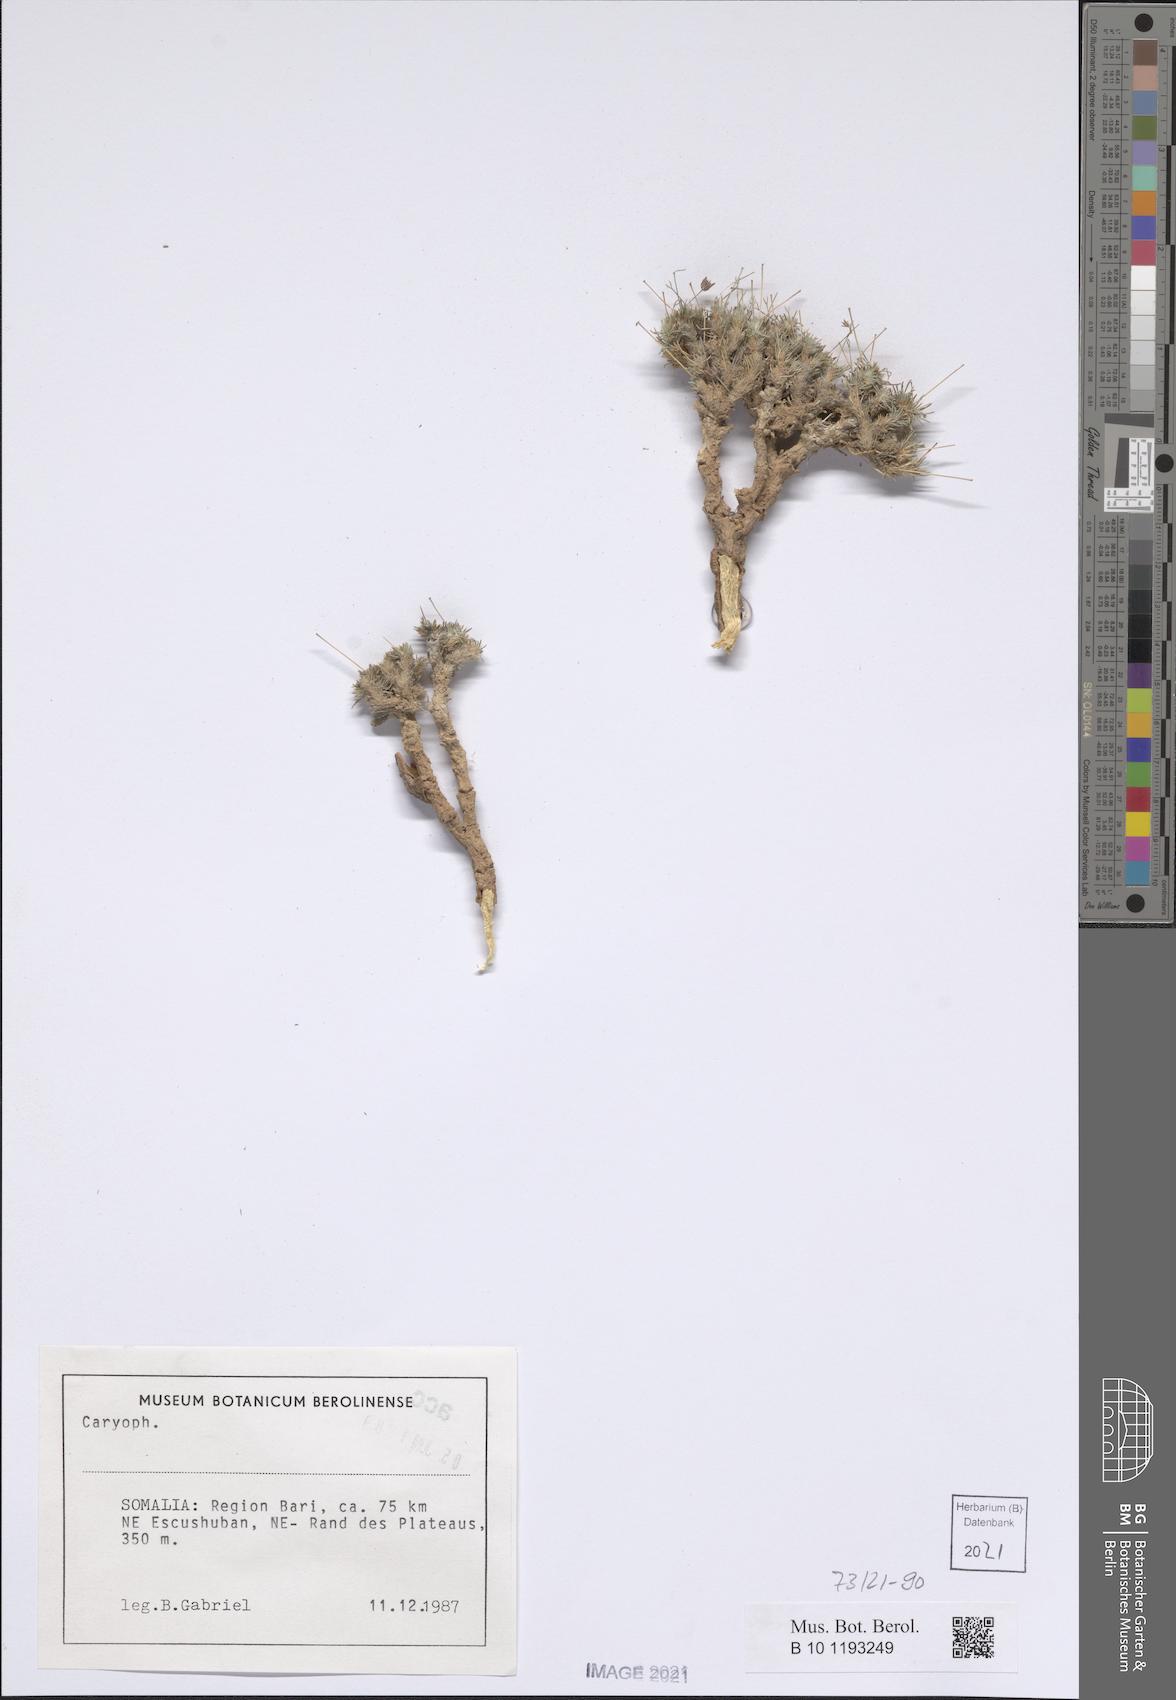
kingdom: Plantae
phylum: Tracheophyta
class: Magnoliopsida
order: Caryophyllales
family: Caryophyllaceae
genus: Polycarpaea
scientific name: Polycarpaea pulvinata
